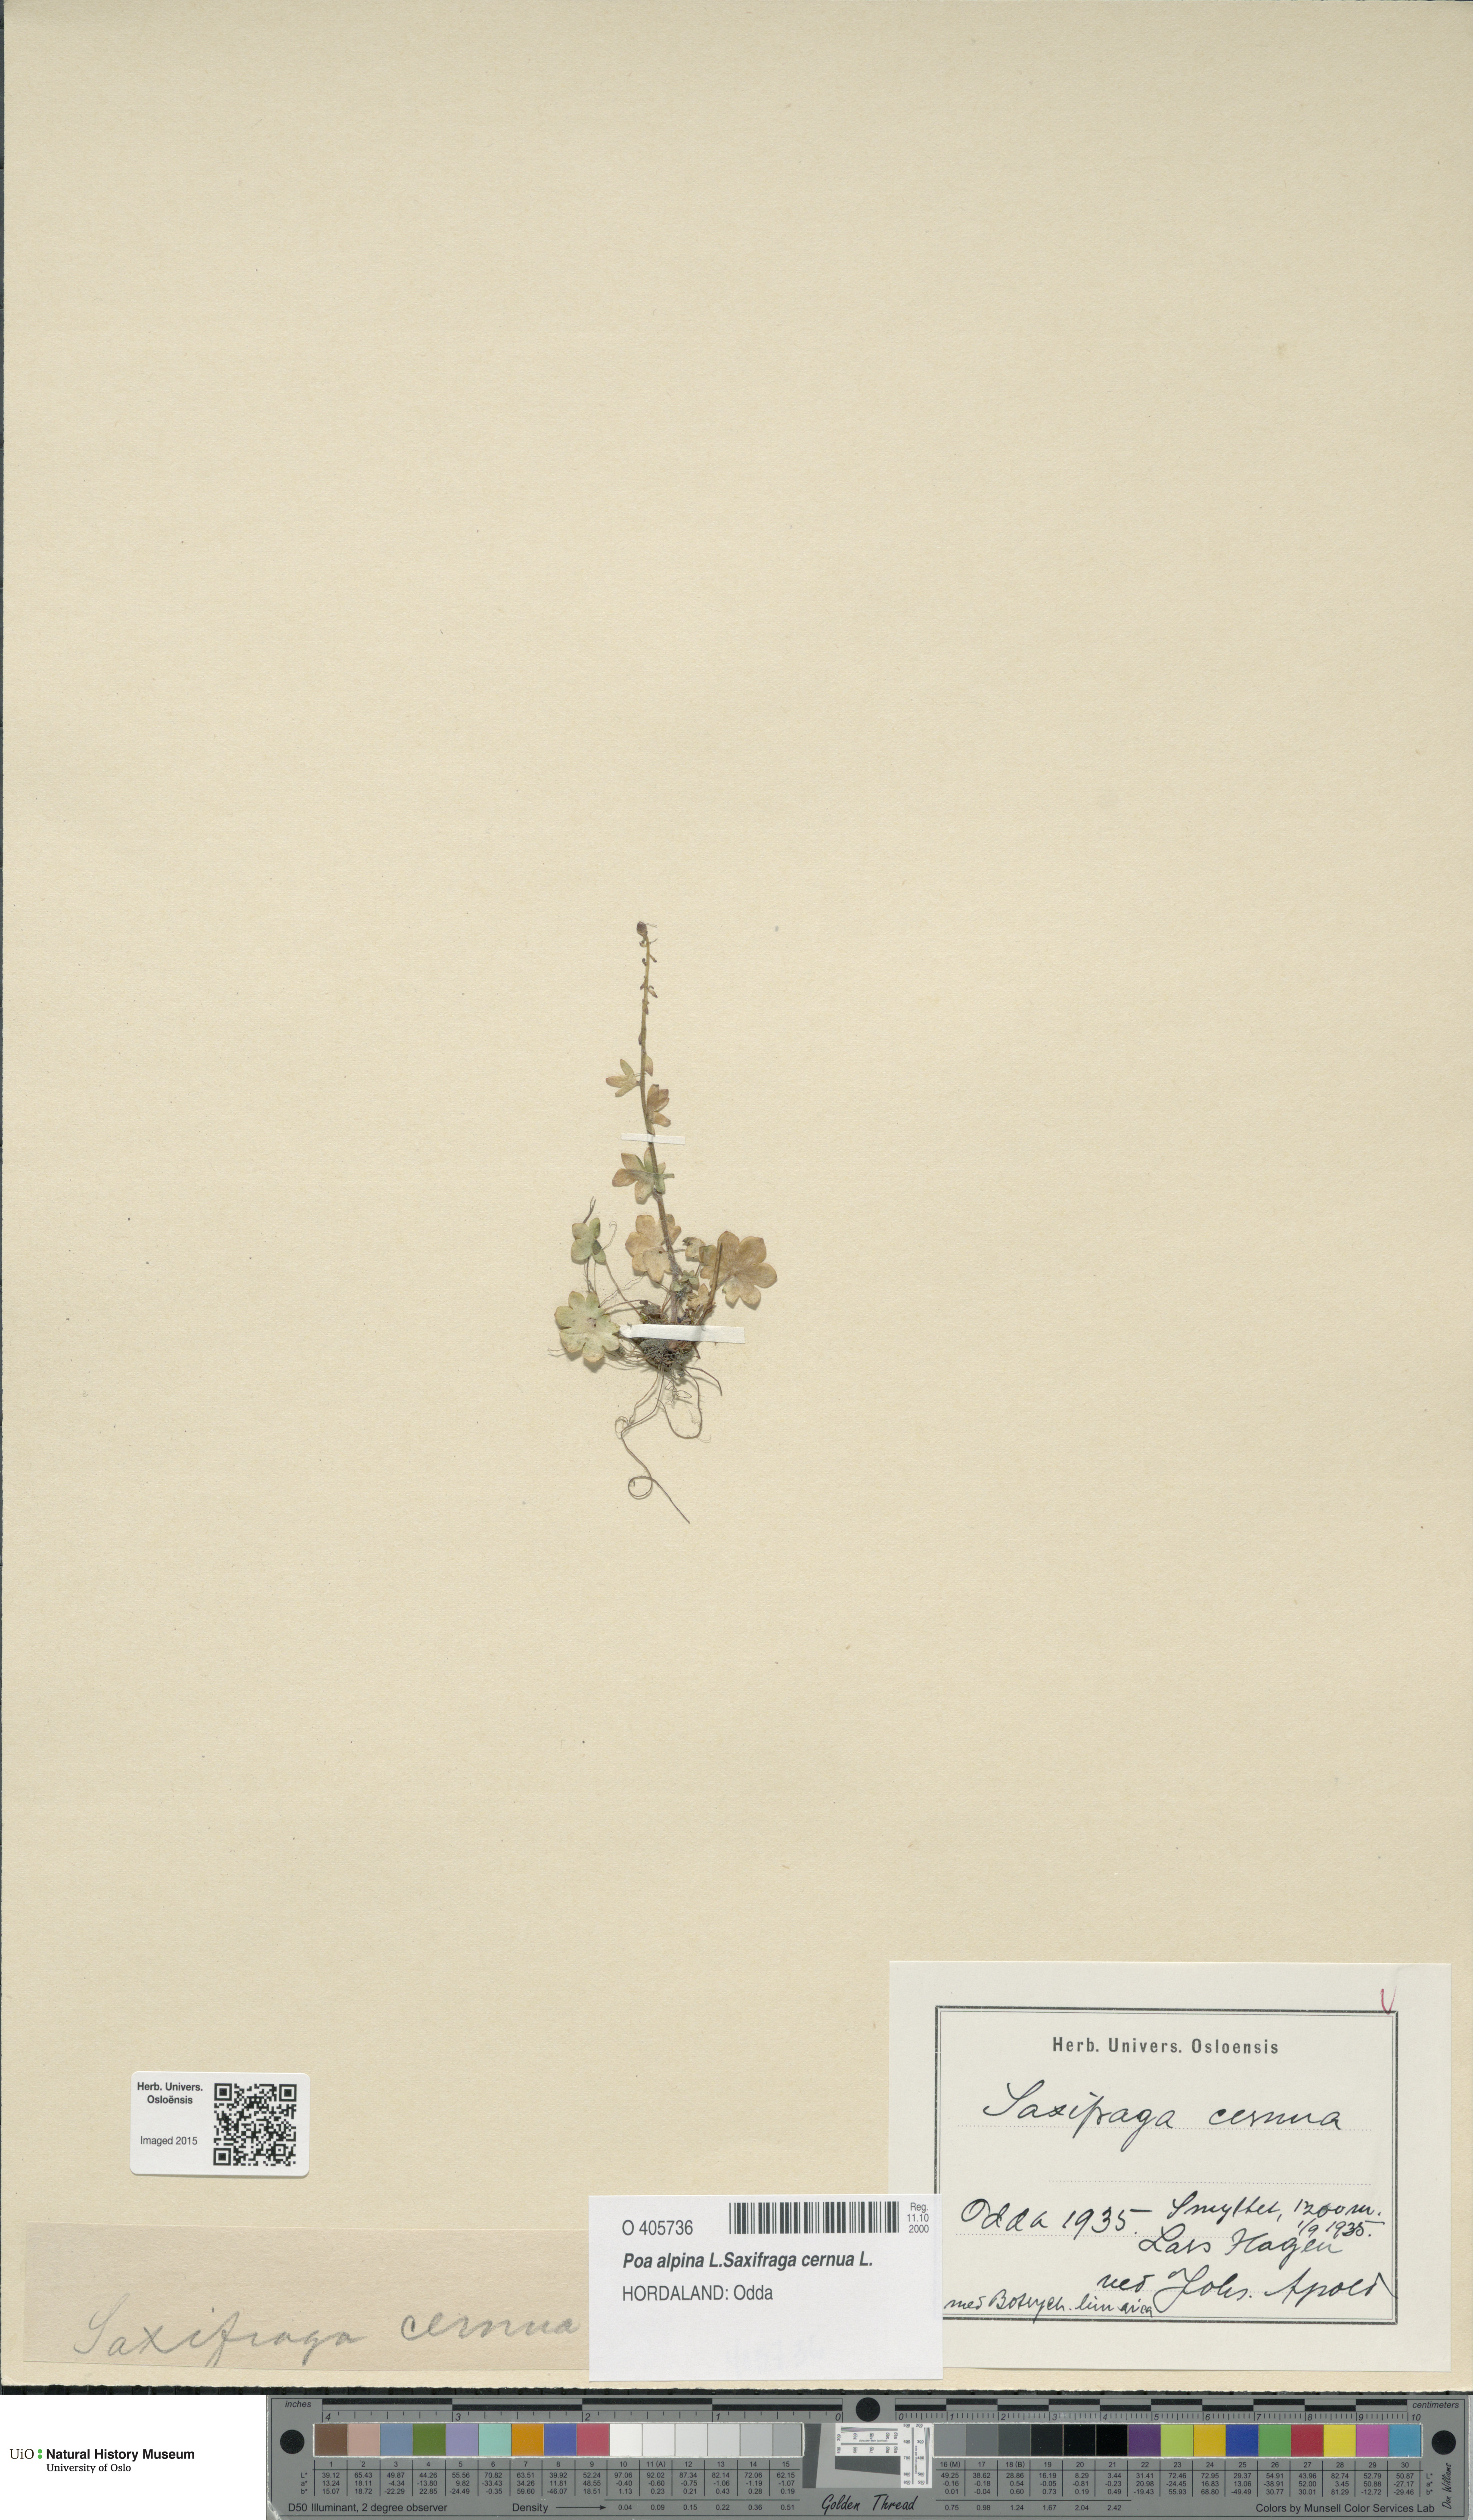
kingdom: Plantae
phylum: Tracheophyta
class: Magnoliopsida
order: Saxifragales
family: Saxifragaceae
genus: Saxifraga
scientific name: Saxifraga cernua
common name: Drooping saxifrage
